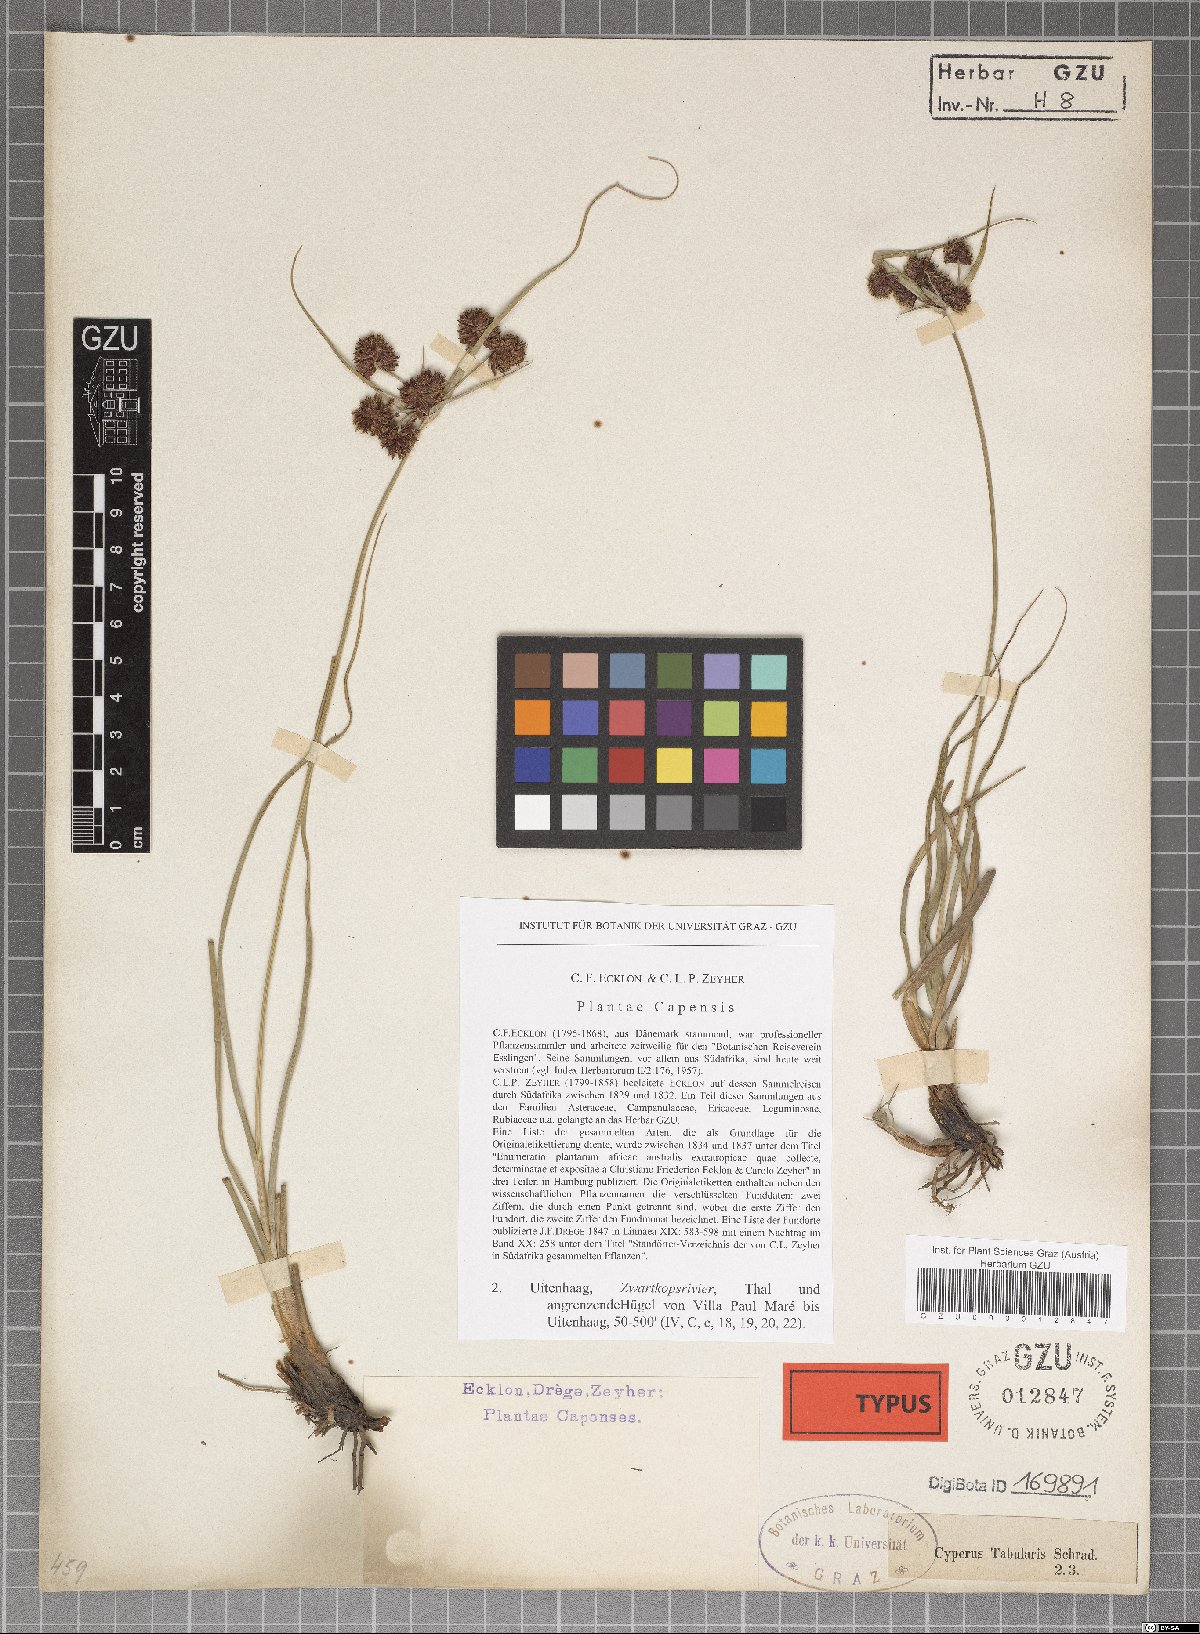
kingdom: Plantae
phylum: Tracheophyta
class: Liliopsida
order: Poales
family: Cyperaceae
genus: Cyperus
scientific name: Cyperus tabularis
